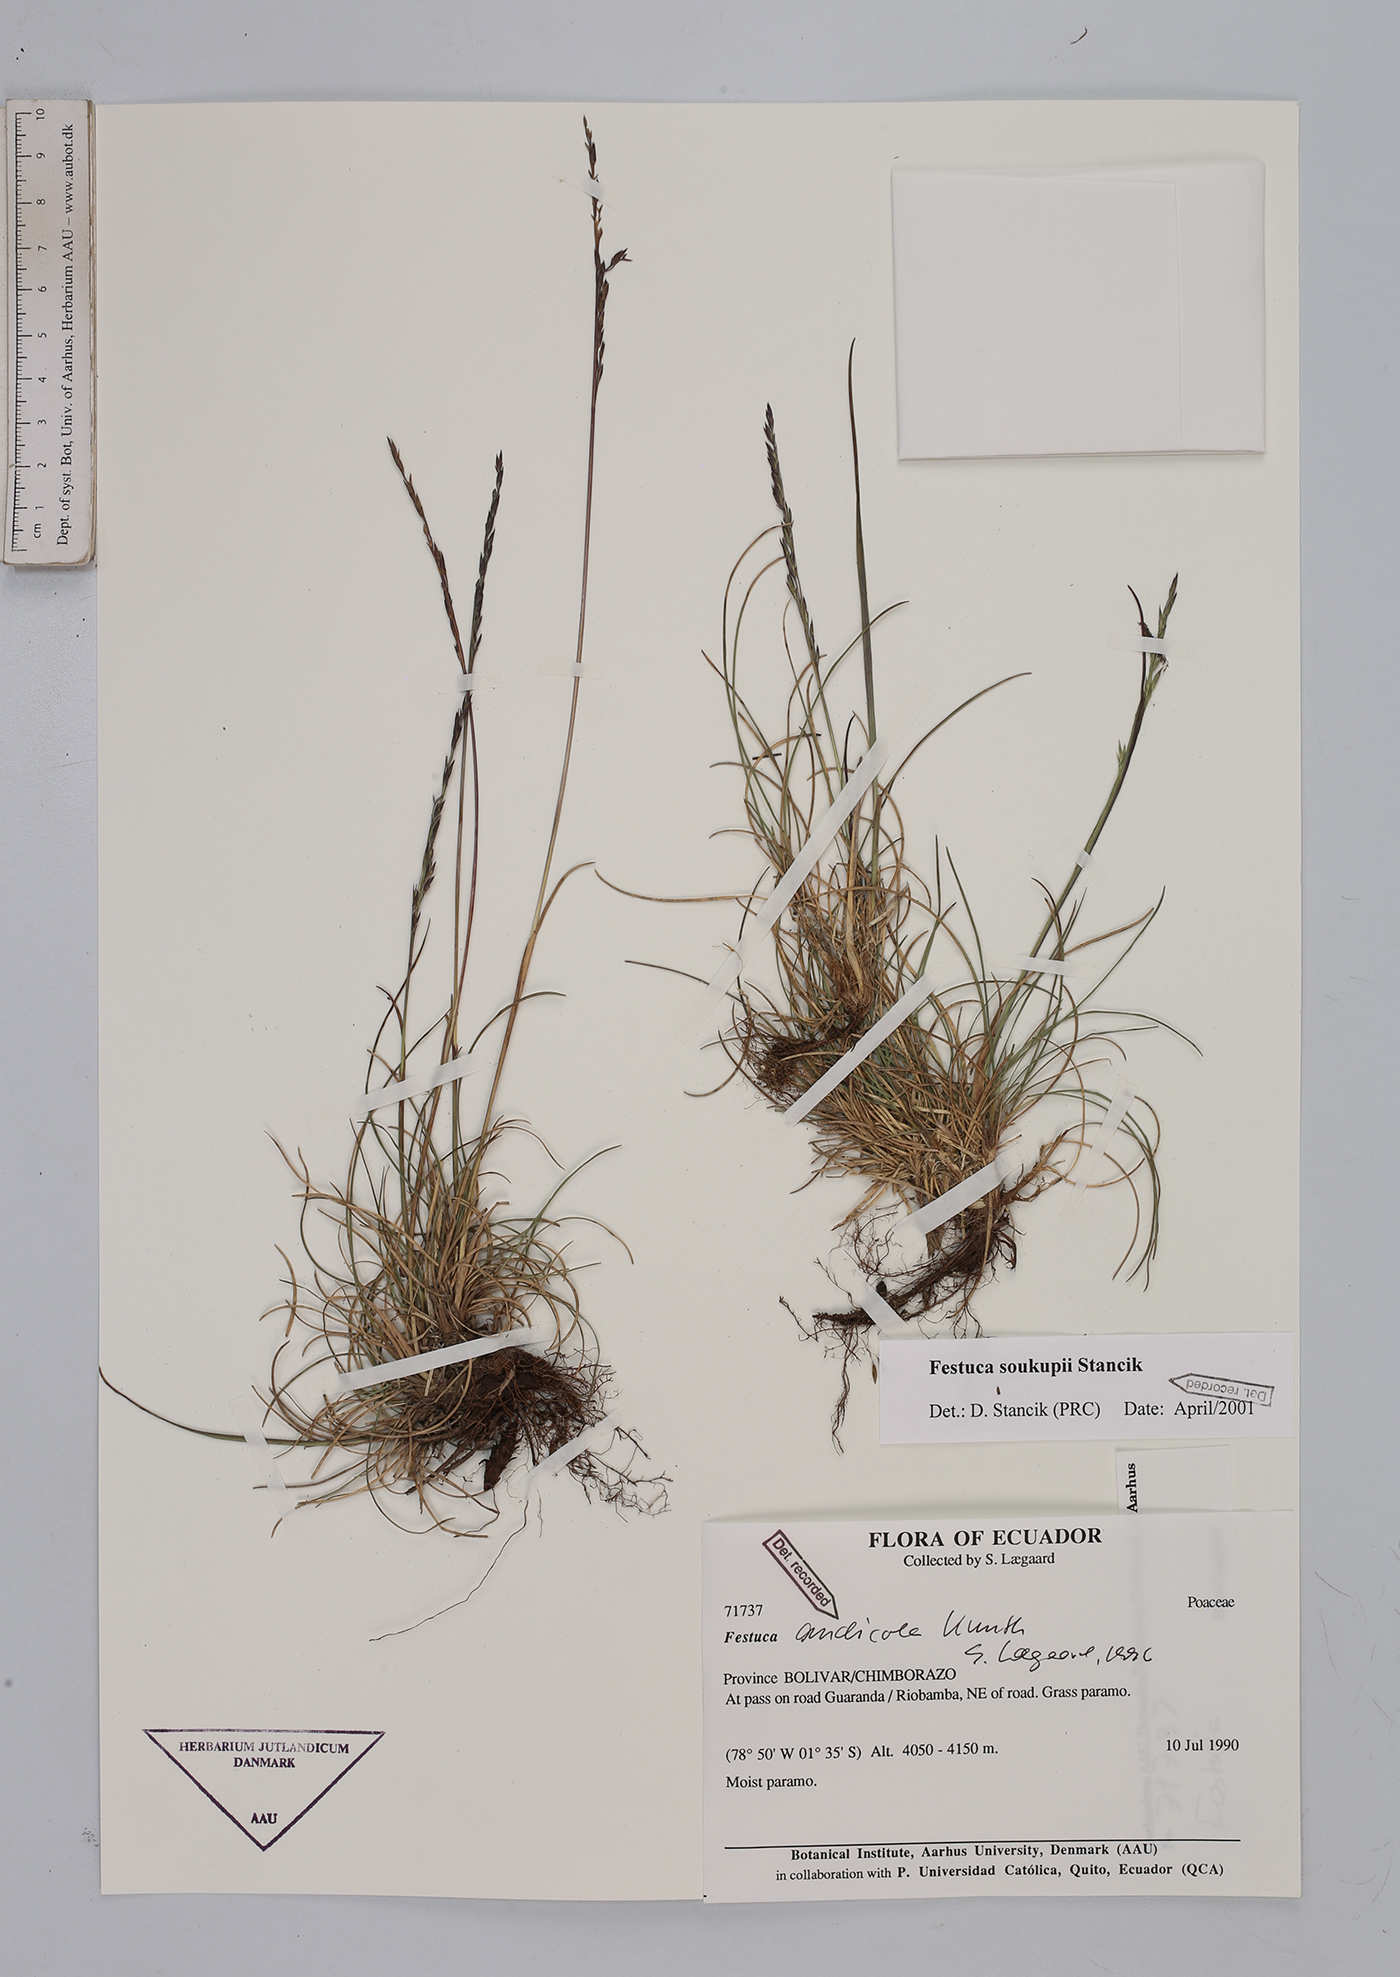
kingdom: Plantae
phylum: Tracheophyta
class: Liliopsida
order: Poales
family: Poaceae
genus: Festuca
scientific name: Festuca soukupii
